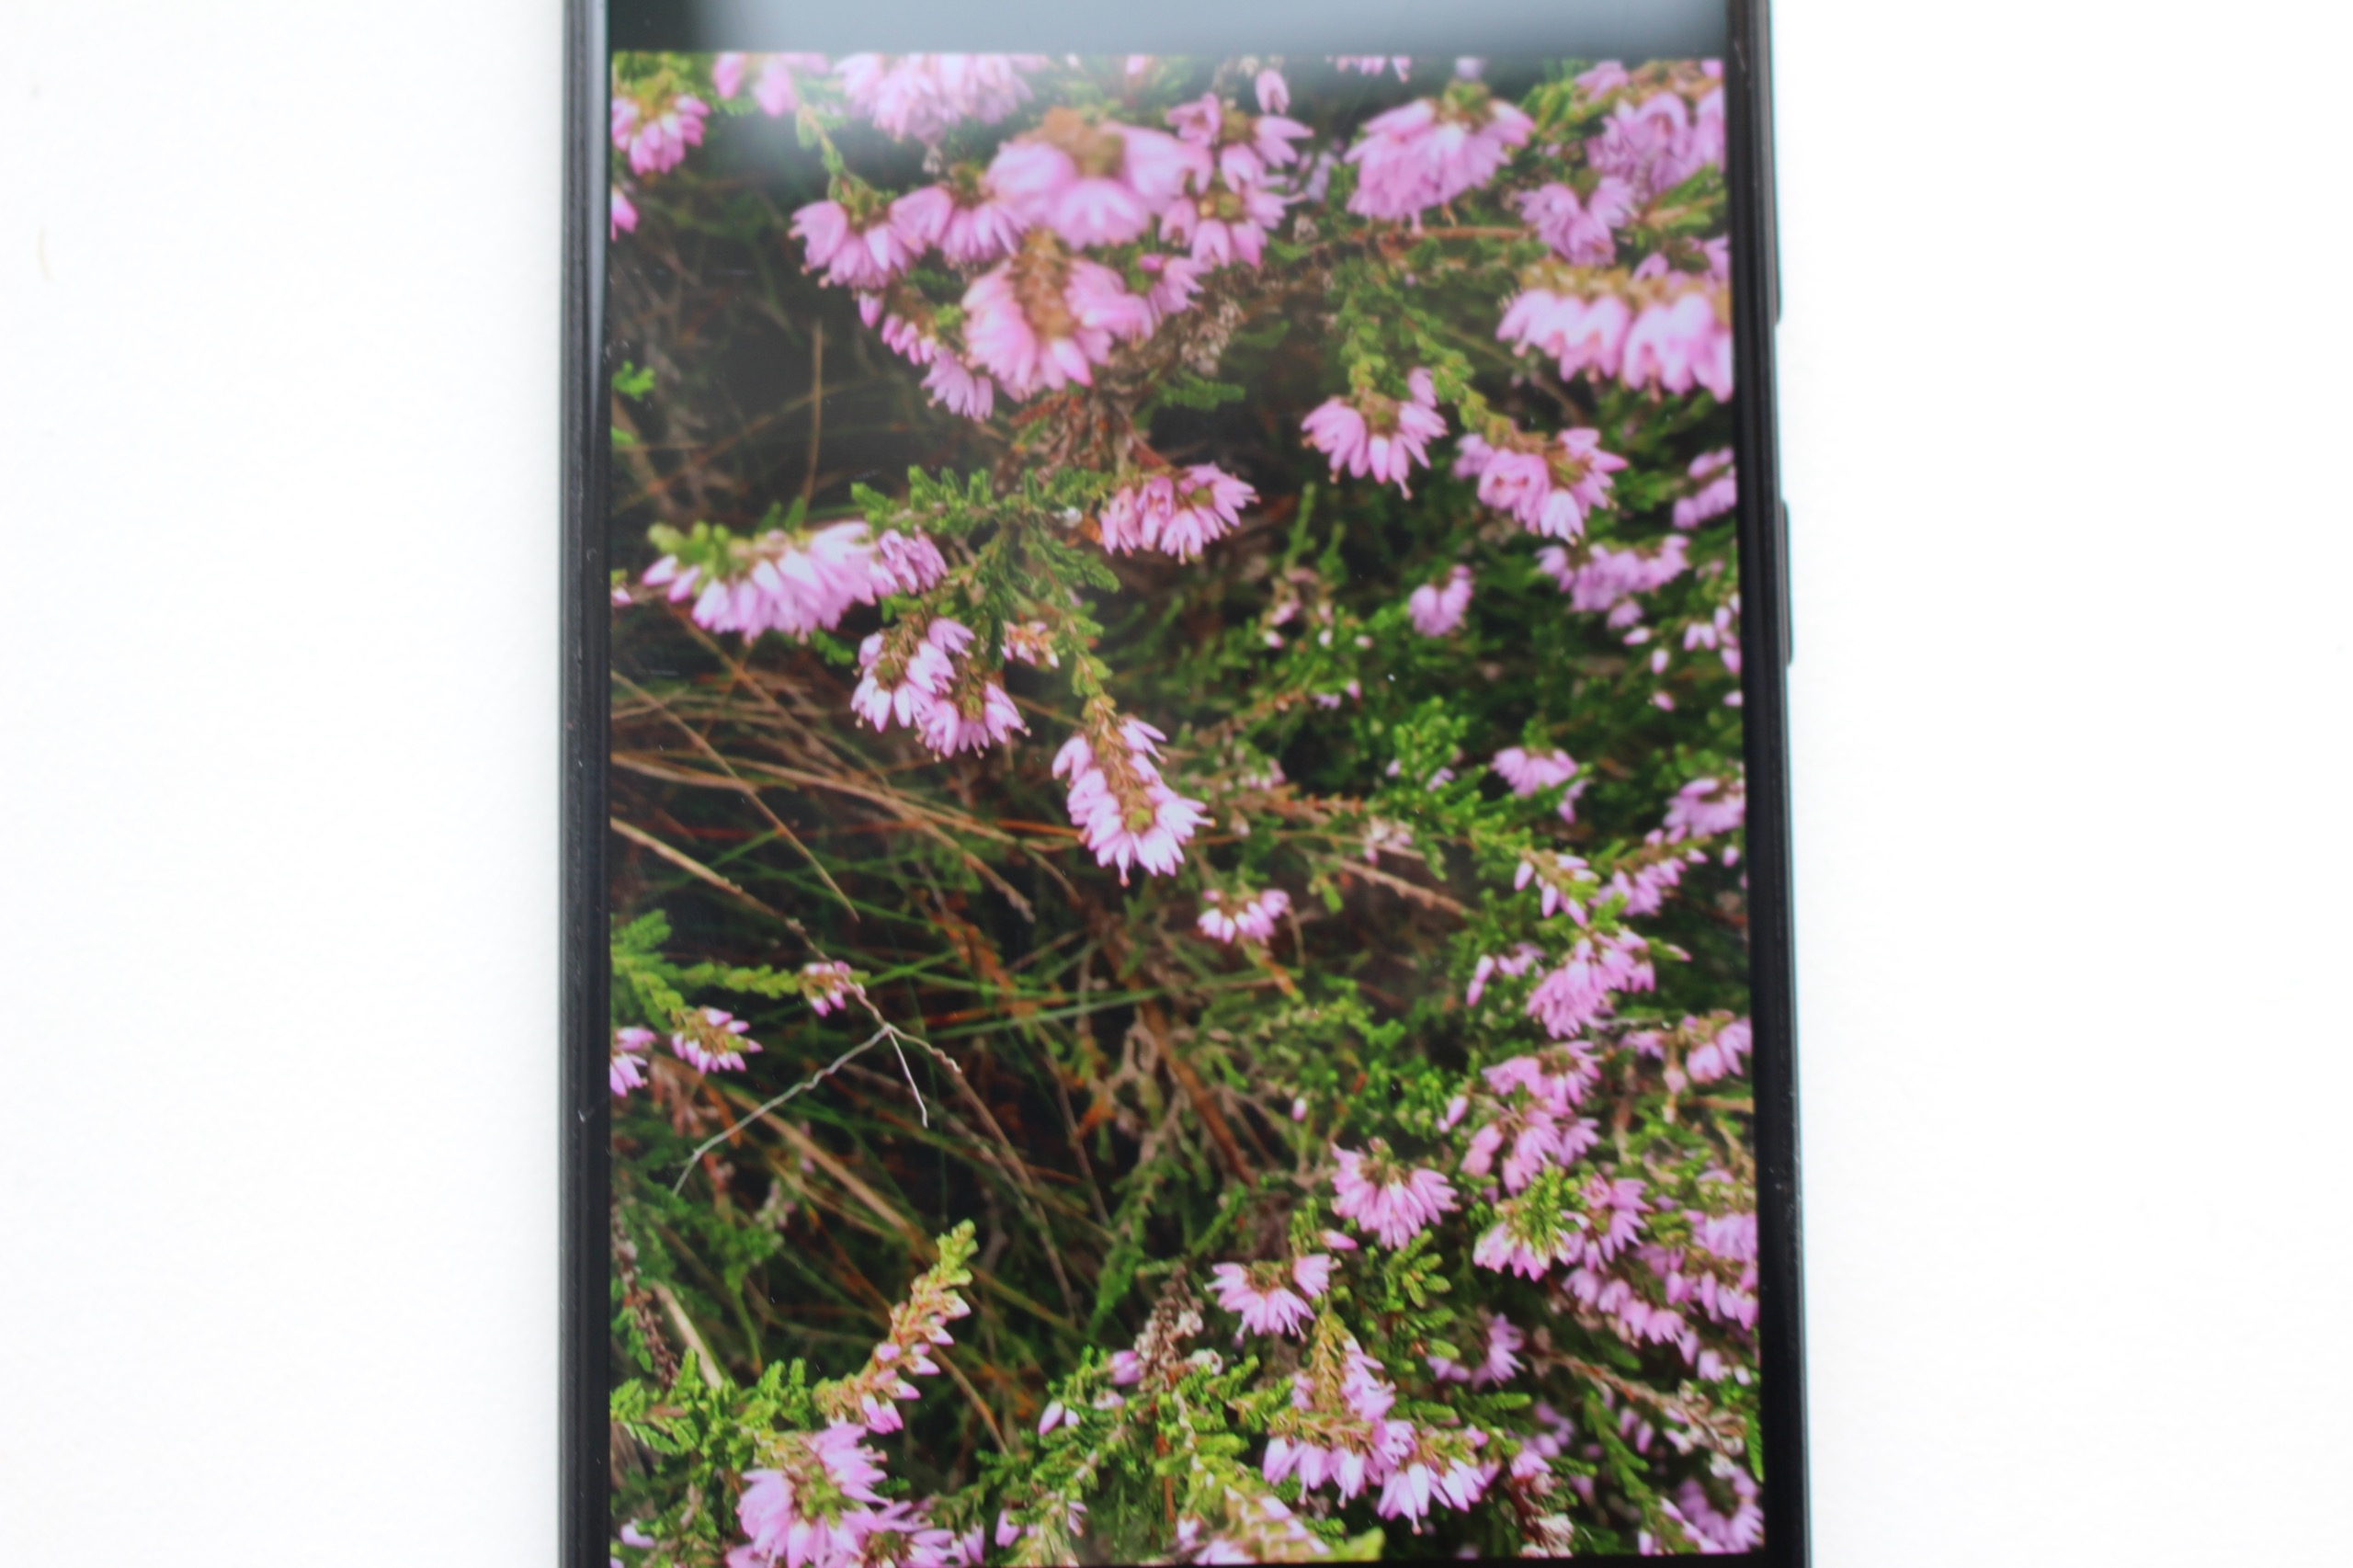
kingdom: Plantae
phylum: Tracheophyta
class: Magnoliopsida
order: Ericales
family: Ericaceae
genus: Calluna
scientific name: Calluna vulgaris
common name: Hedelyng
